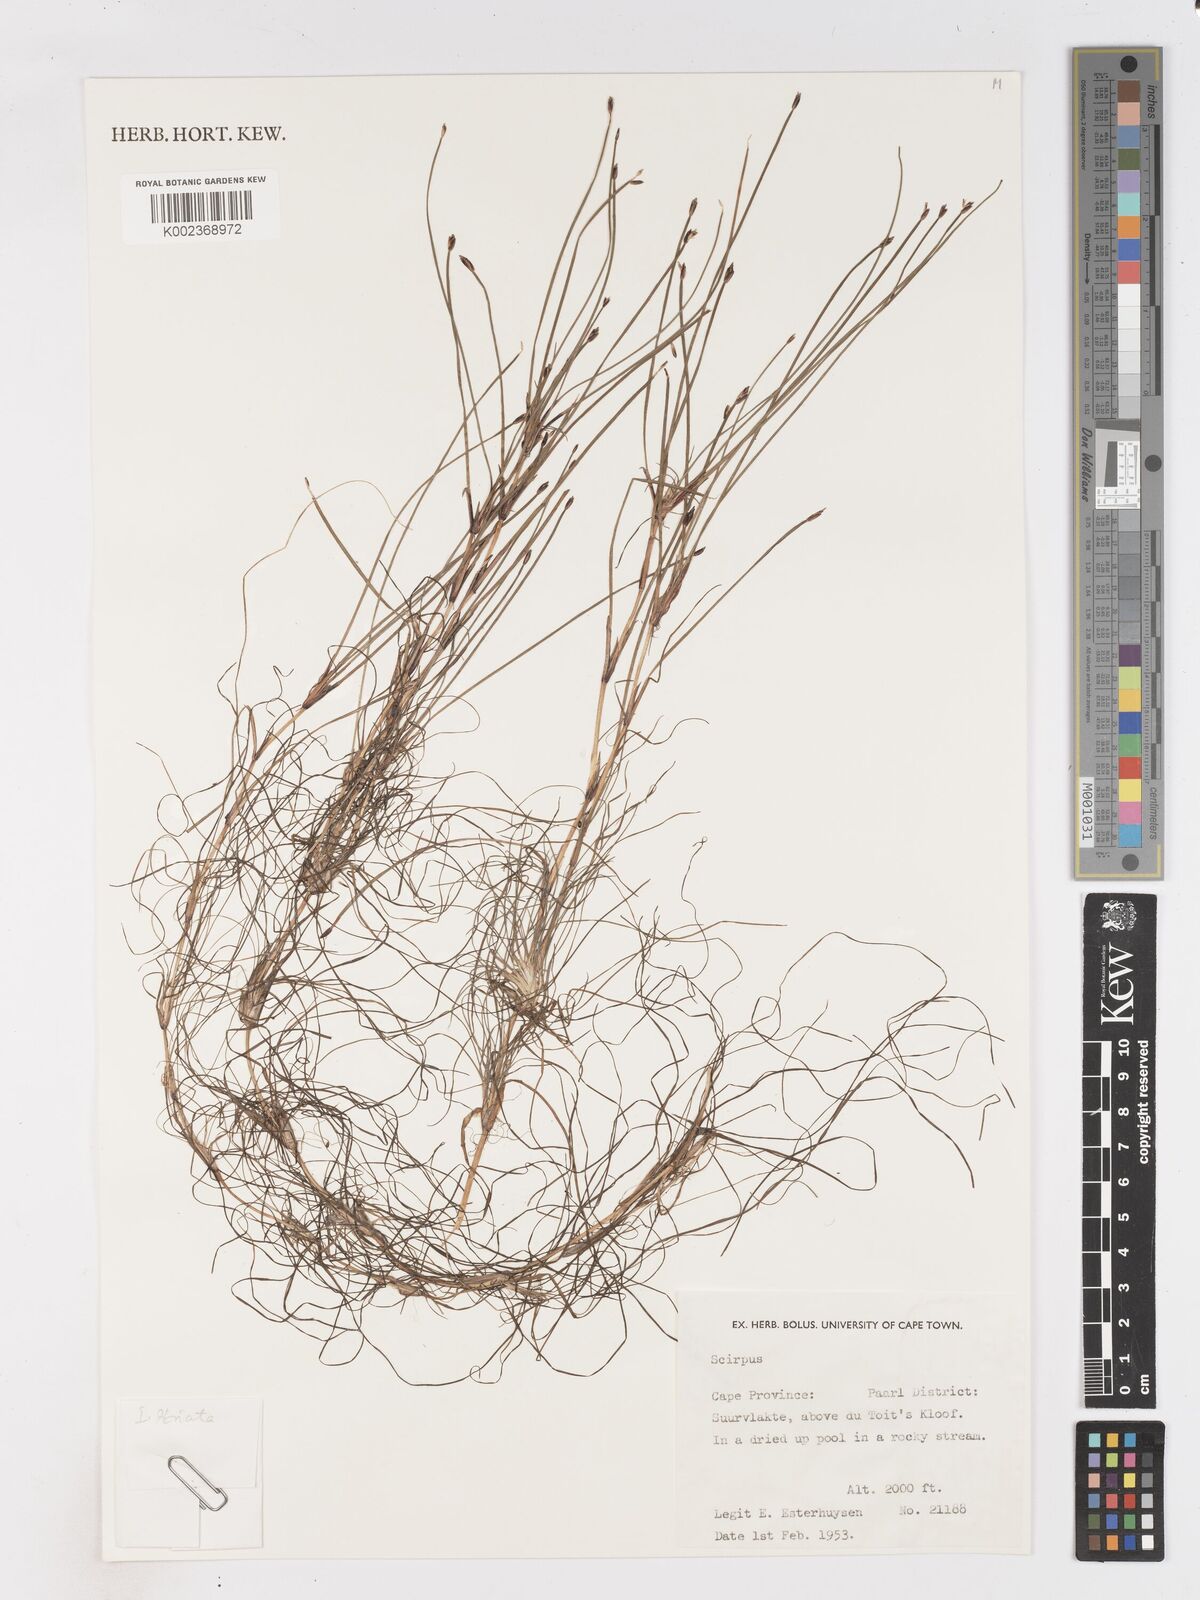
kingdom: Plantae
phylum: Tracheophyta
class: Liliopsida
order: Poales
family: Cyperaceae
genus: Isolepis
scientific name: Isolepis striata
